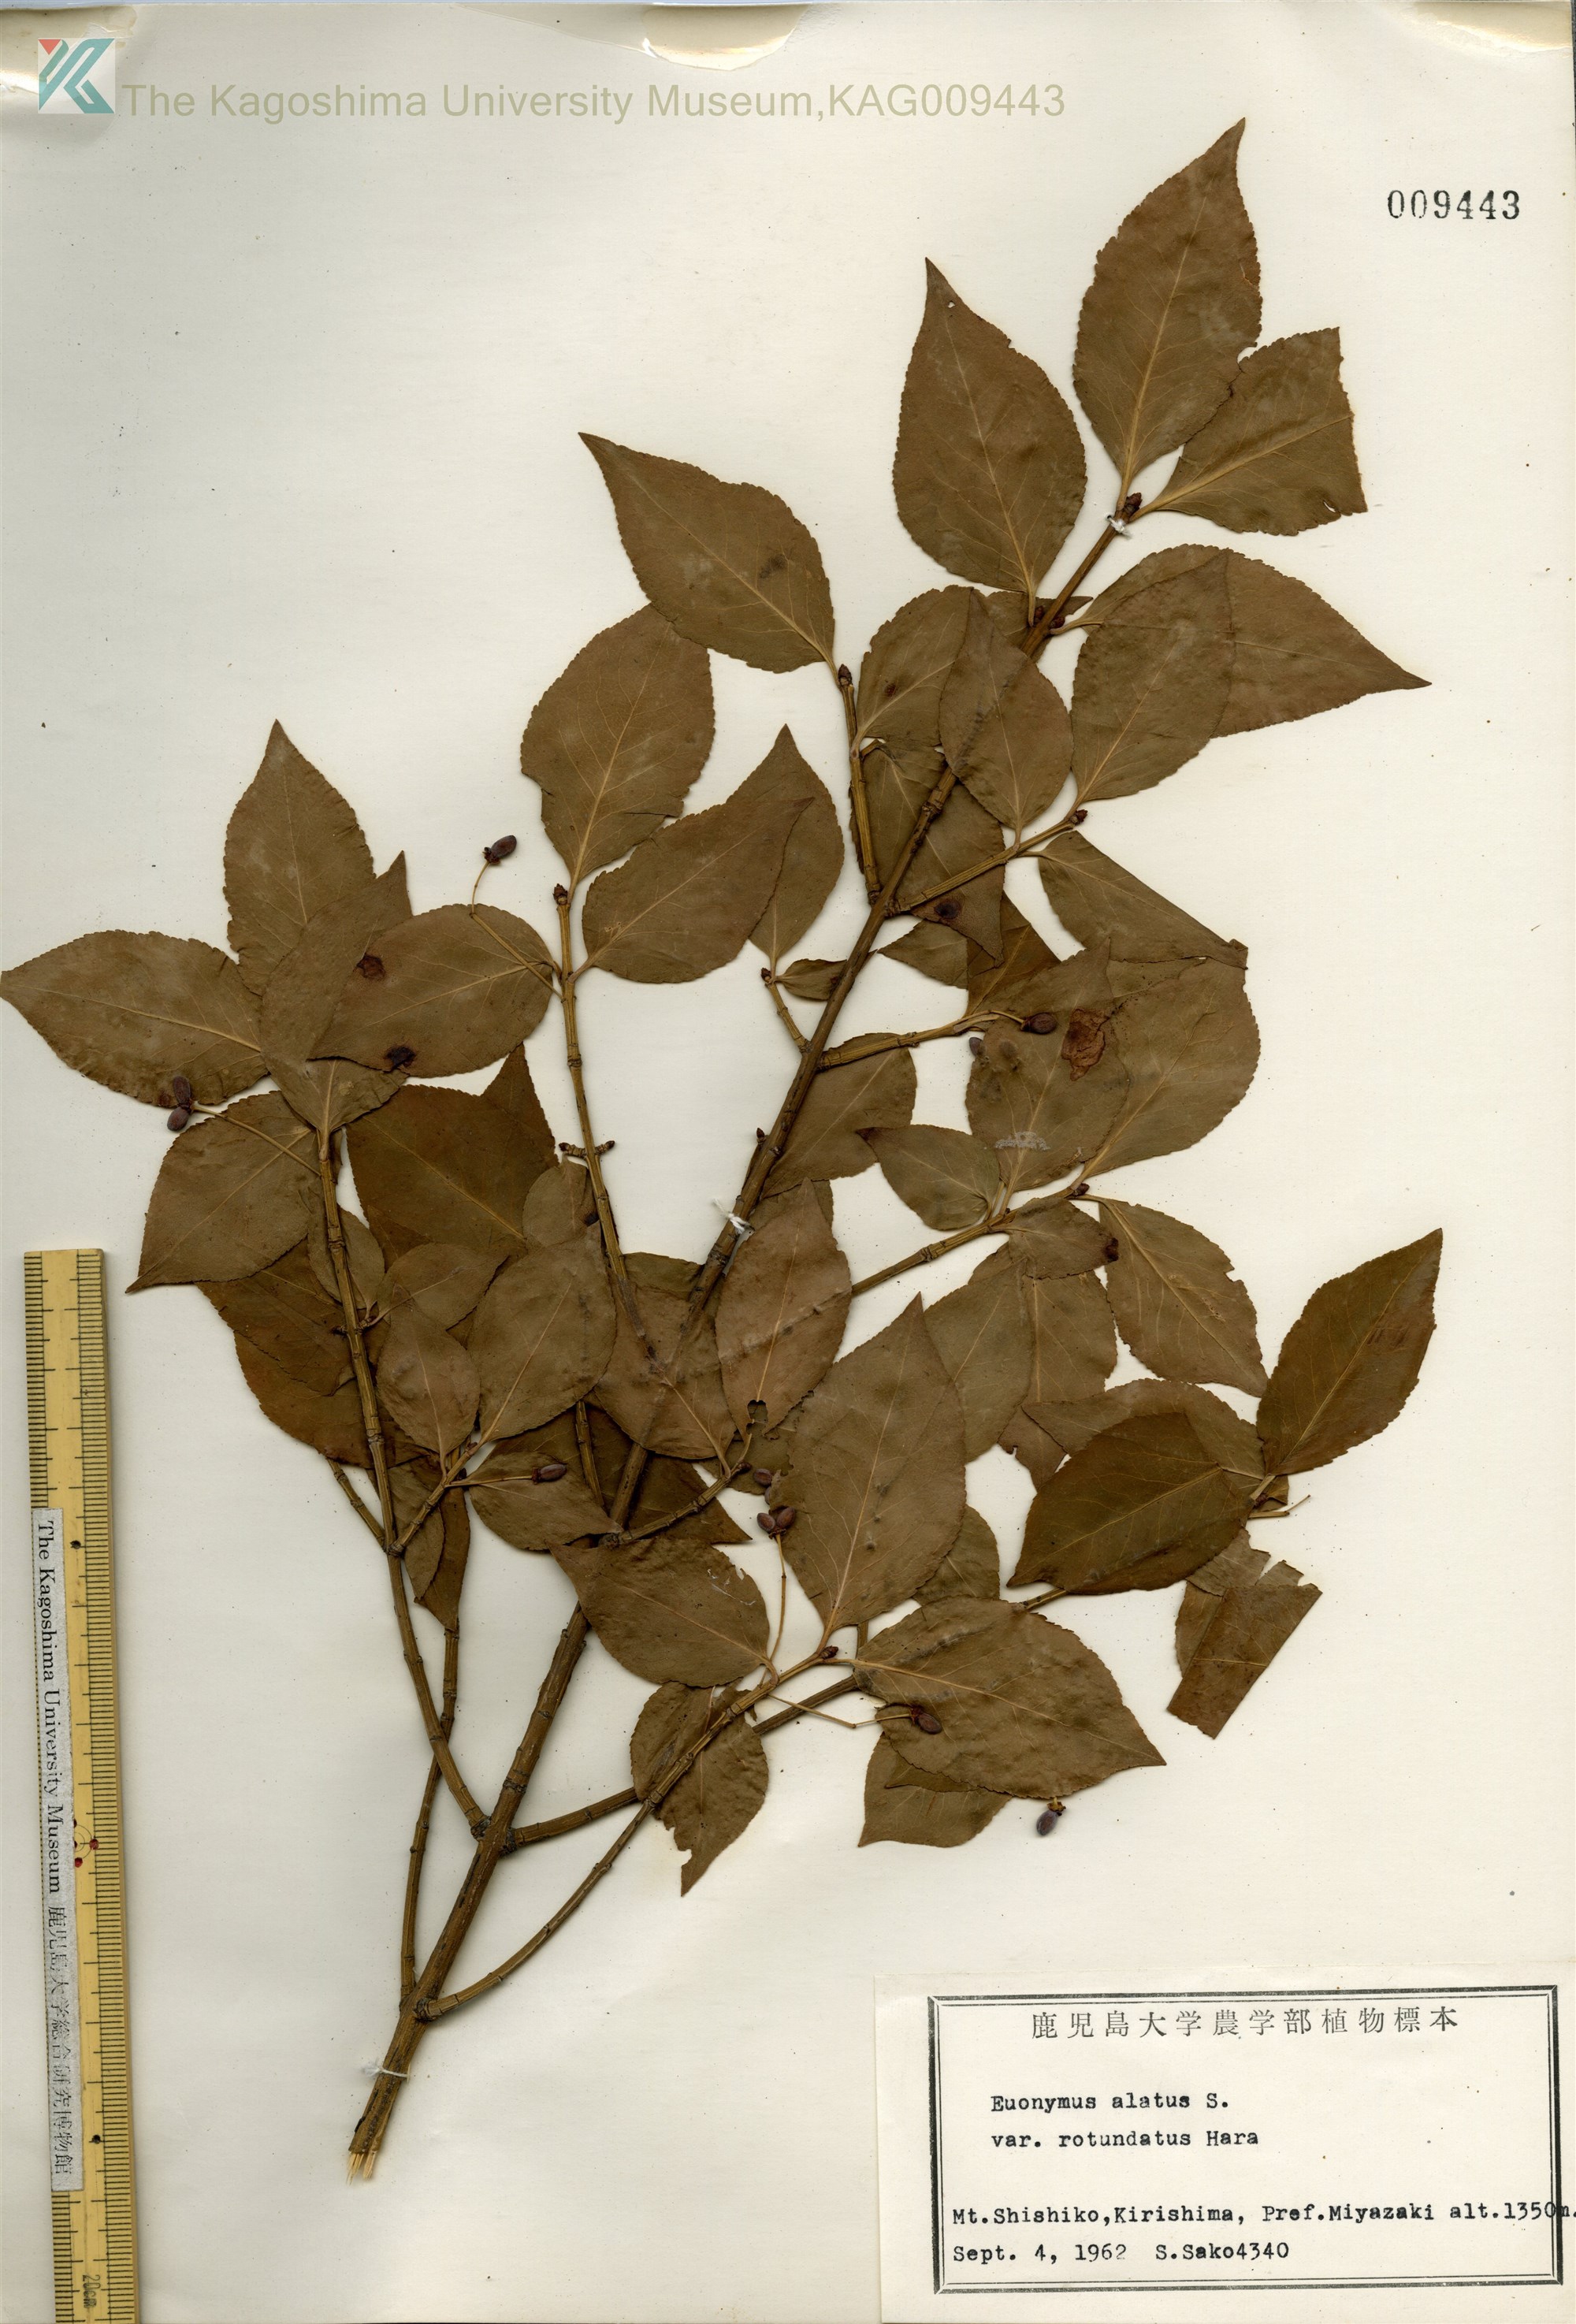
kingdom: Plantae
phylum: Tracheophyta
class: Magnoliopsida
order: Celastrales
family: Celastraceae
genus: Euonymus
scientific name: Euonymus alatus
